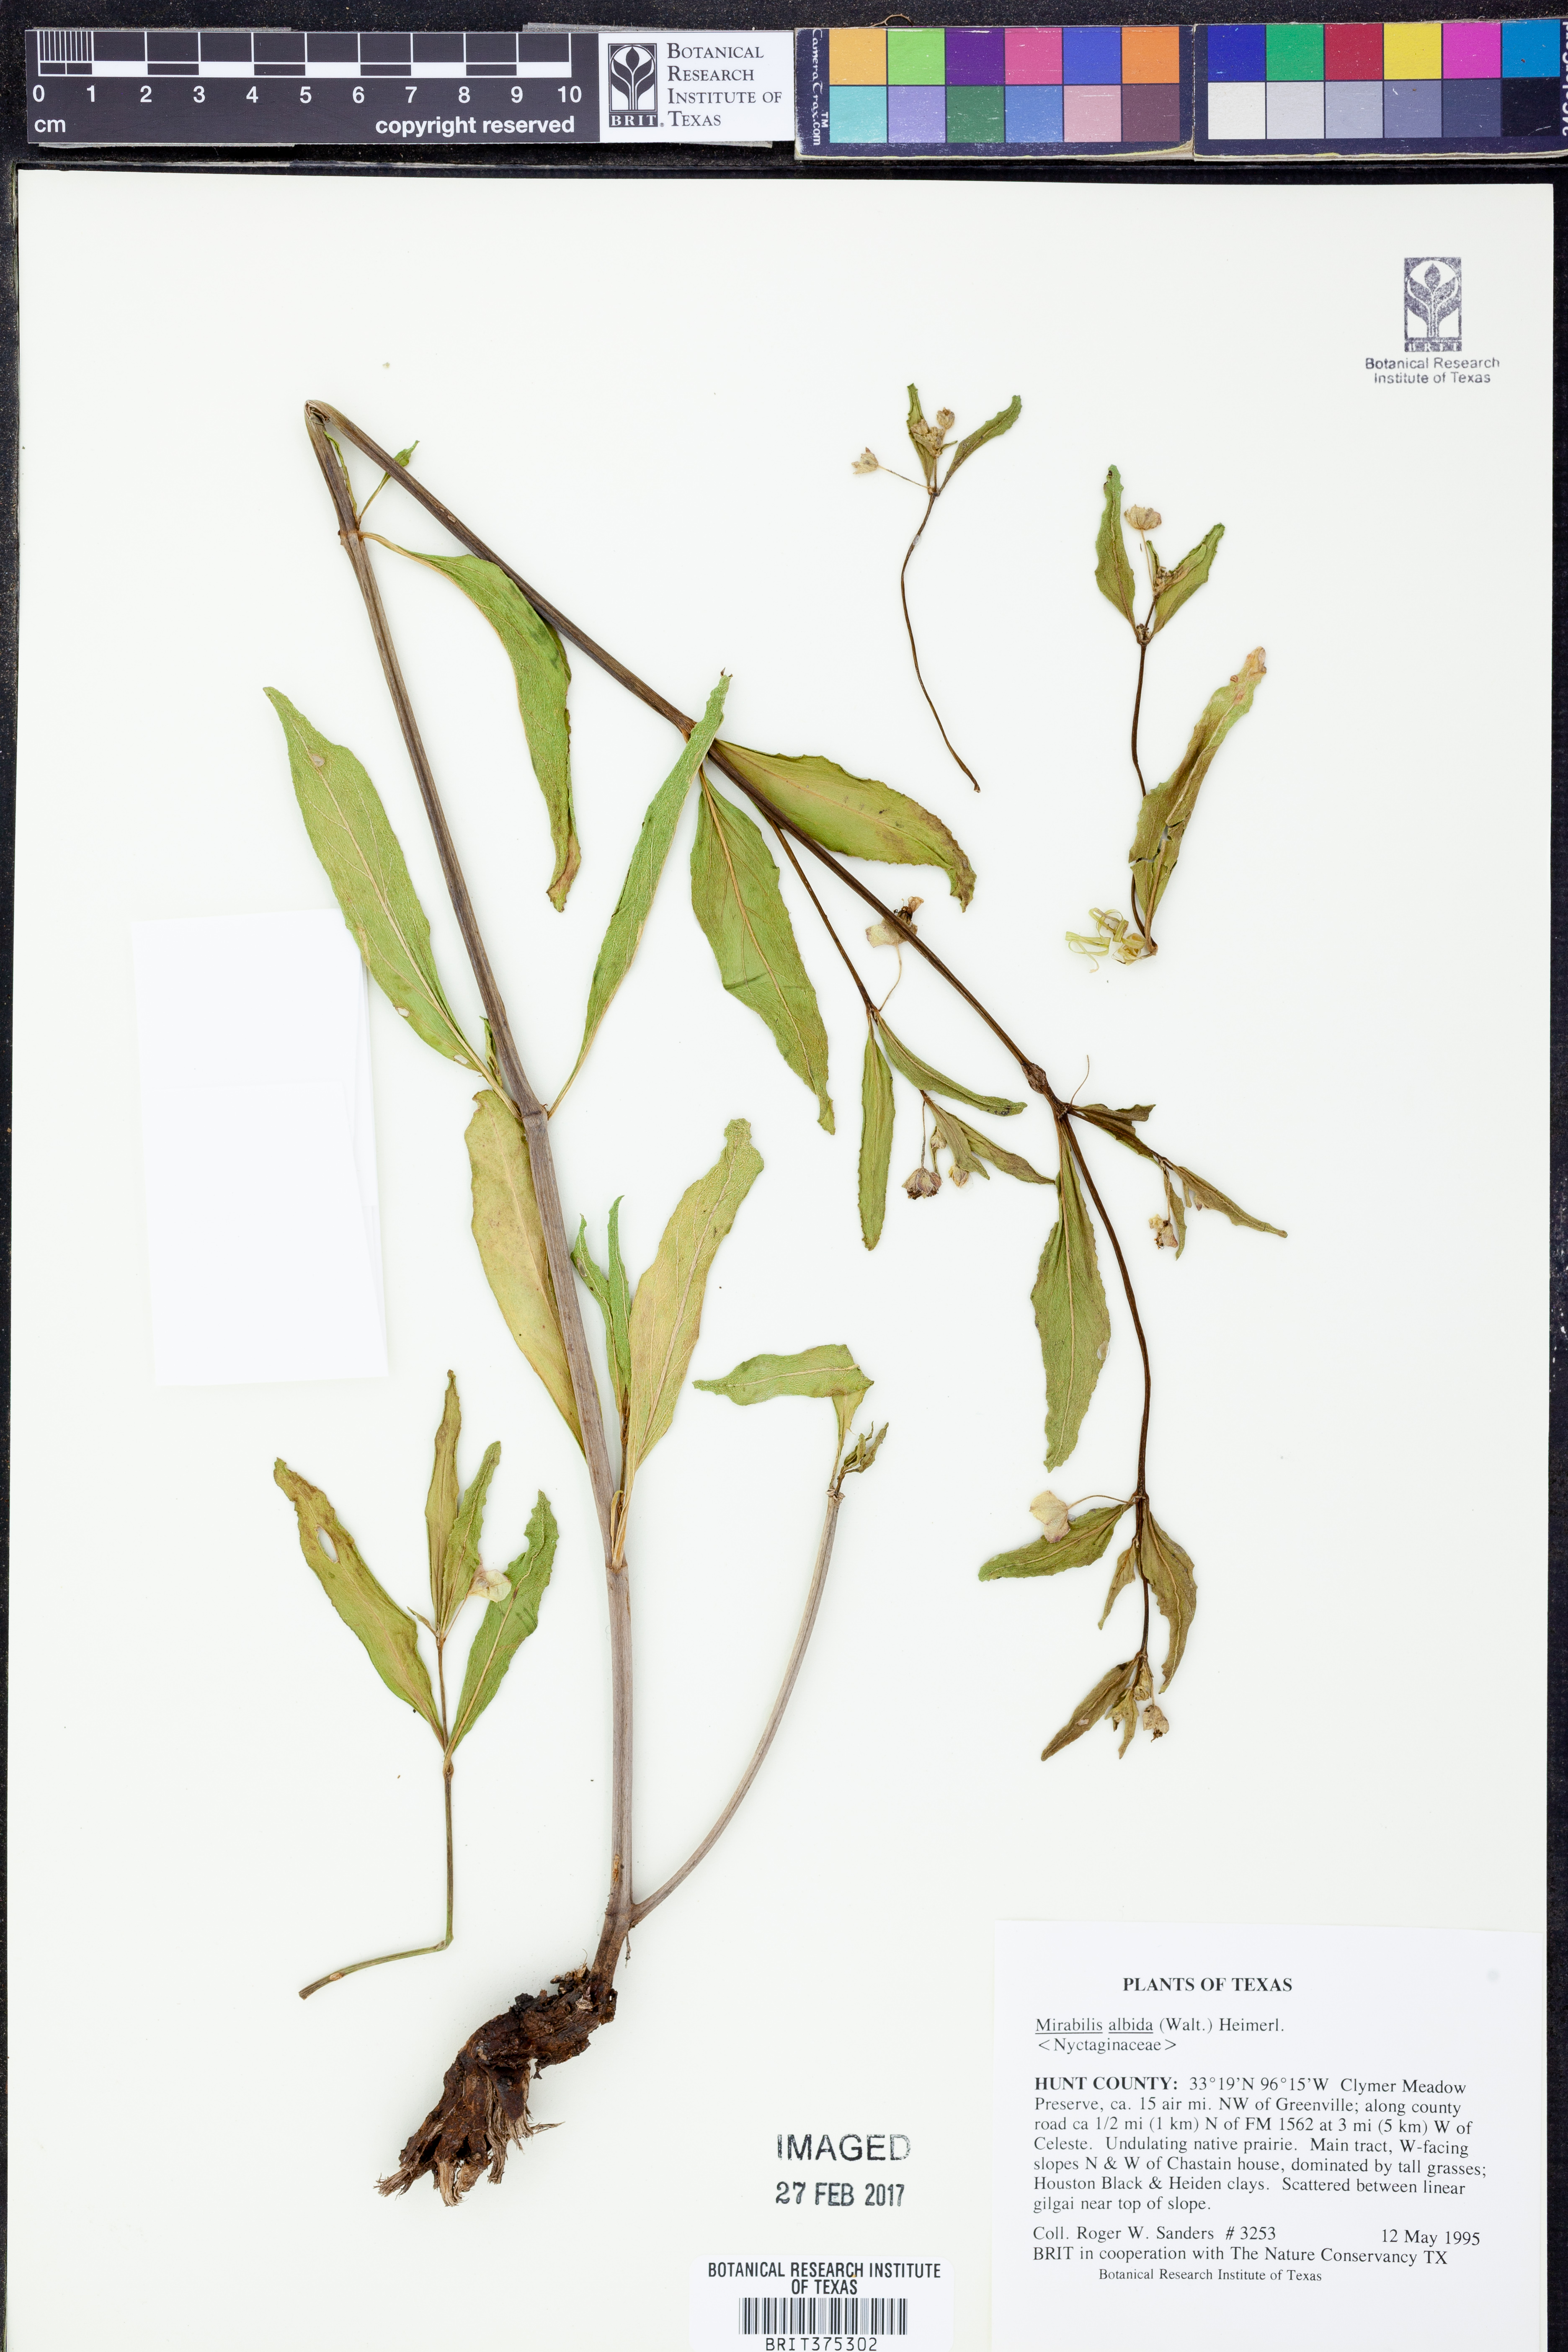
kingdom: Plantae
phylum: Tracheophyta
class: Magnoliopsida
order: Caryophyllales
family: Nyctaginaceae
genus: Mirabilis
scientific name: Mirabilis albida
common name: Hairy four-o'clock
